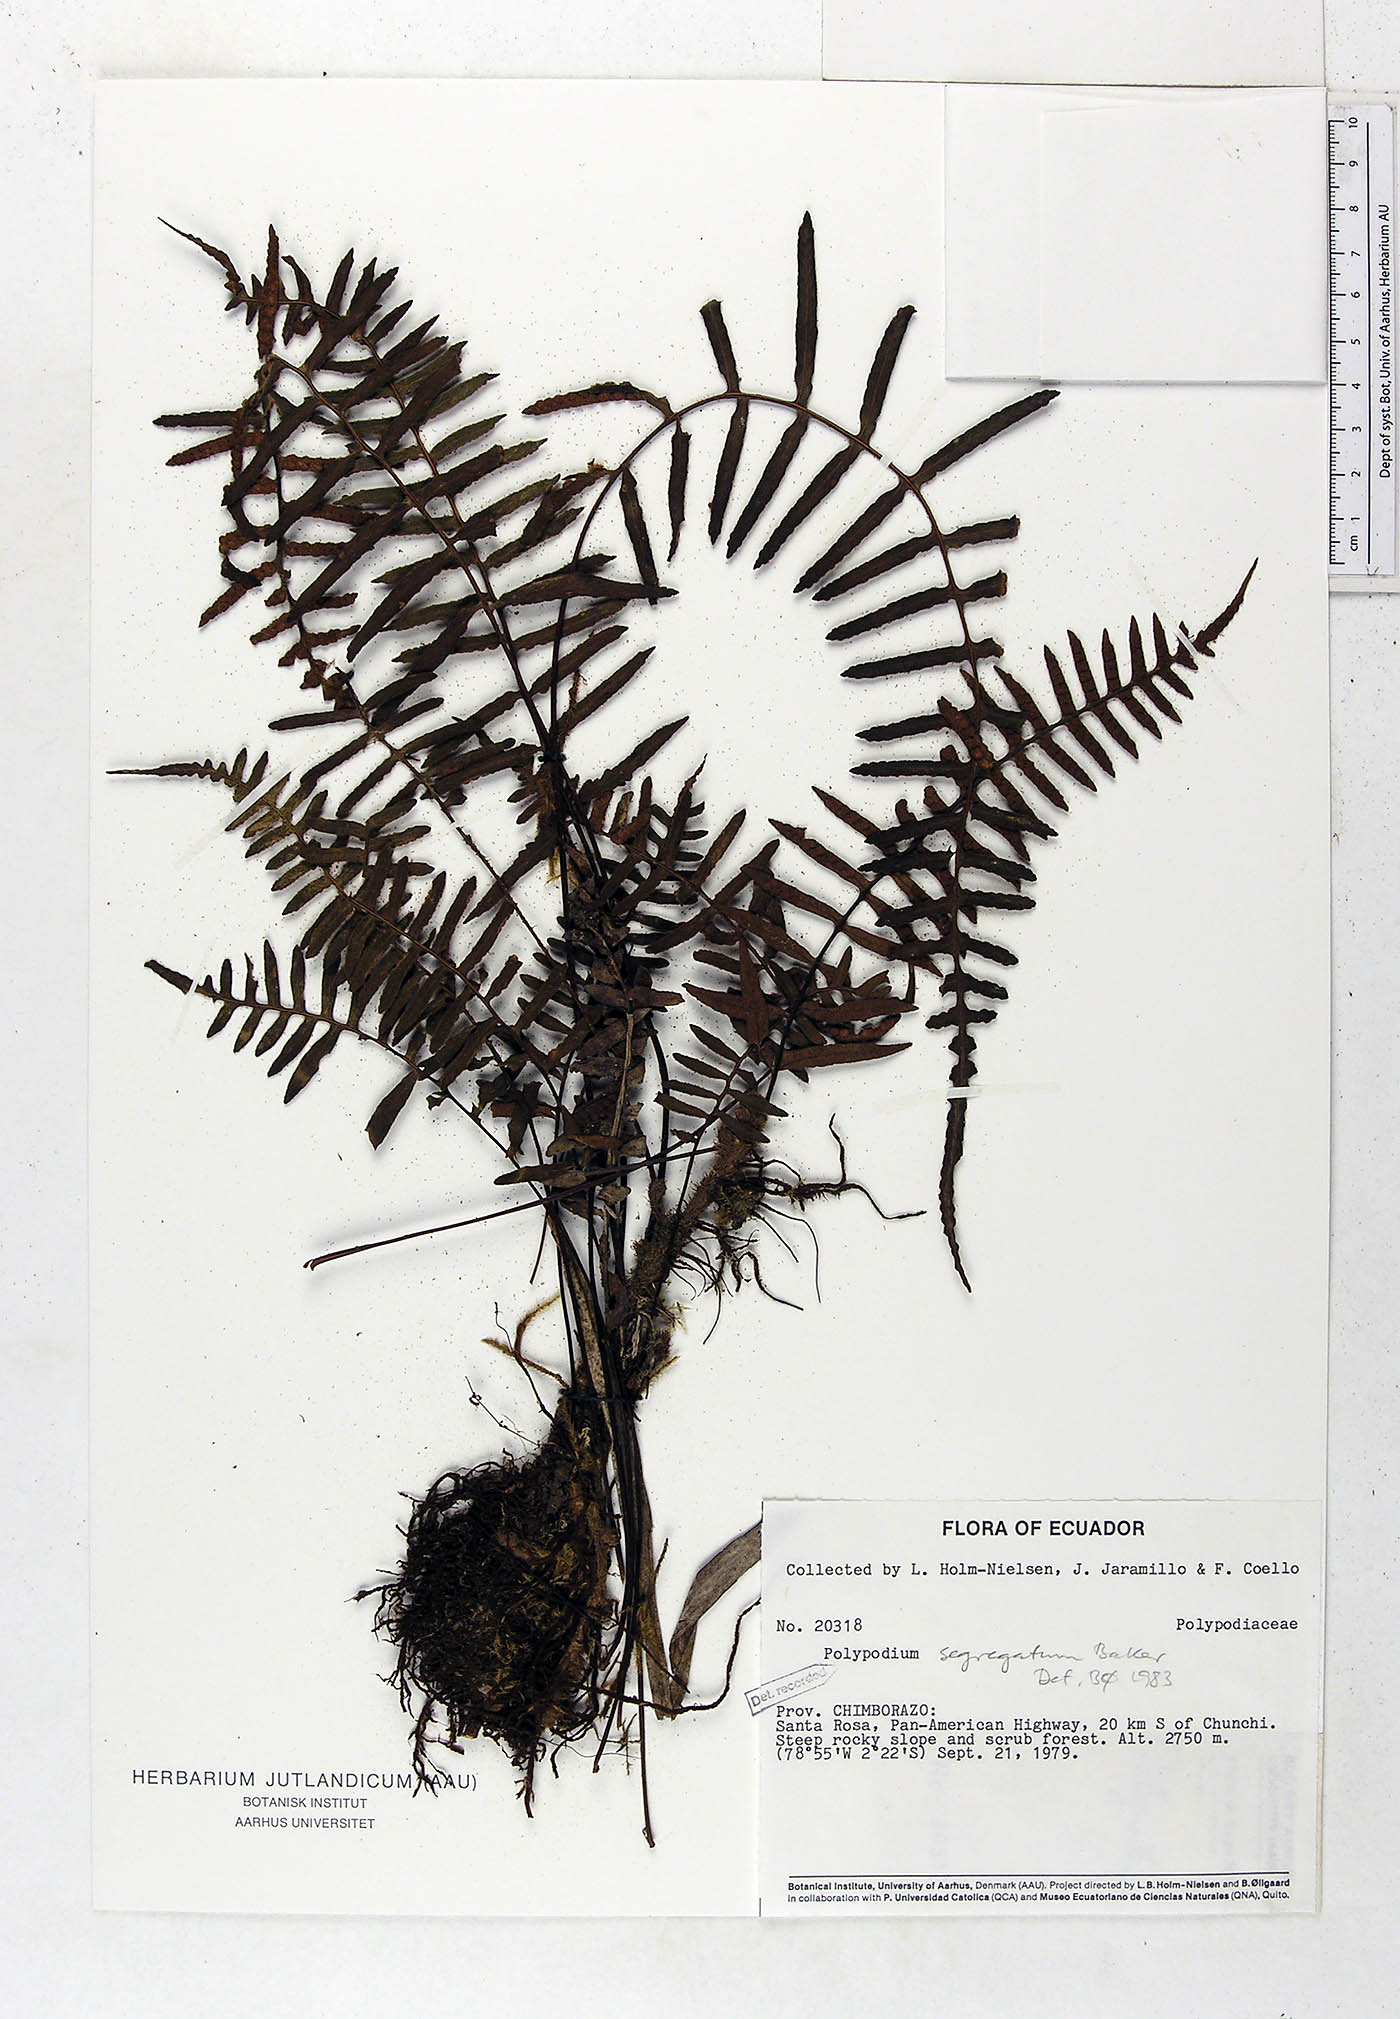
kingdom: Plantae
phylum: Tracheophyta
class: Polypodiopsida
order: Polypodiales
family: Polypodiaceae
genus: Pleopeltis
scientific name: Pleopeltis segregata
